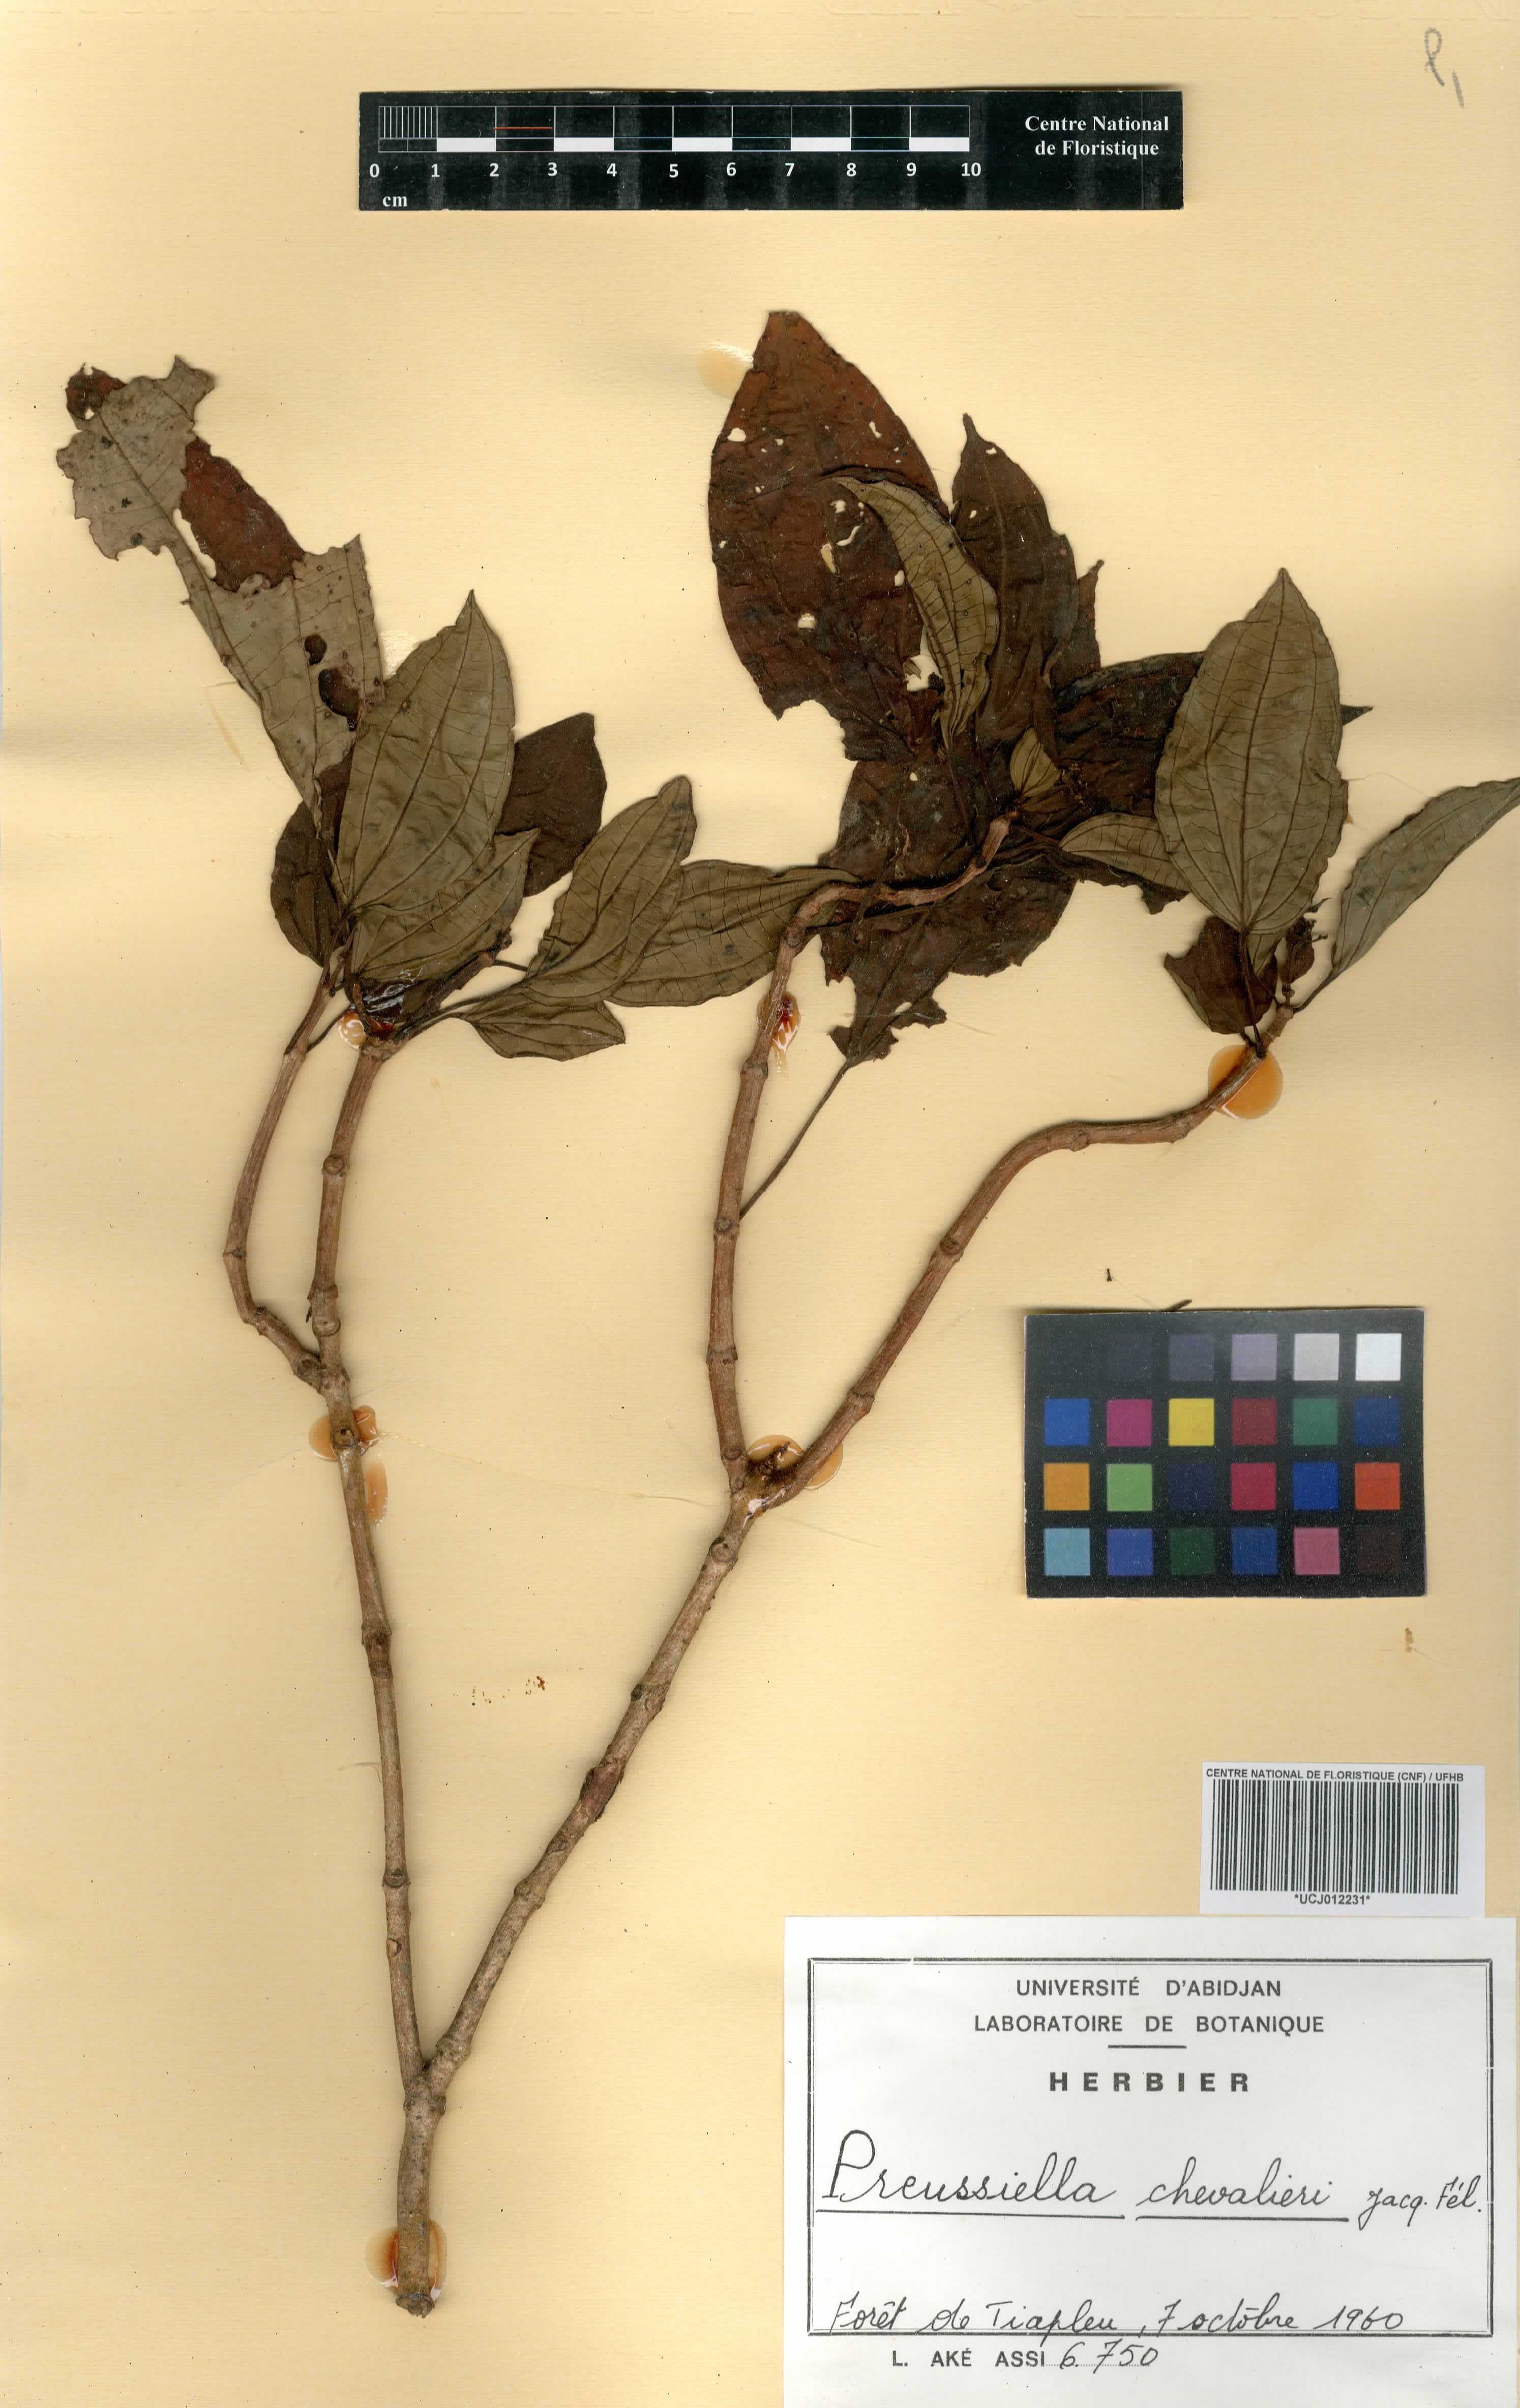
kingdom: Plantae
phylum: Tracheophyta
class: Magnoliopsida
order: Myrtales
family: Melastomataceae
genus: Preussiella
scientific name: Preussiella kamerunensis
